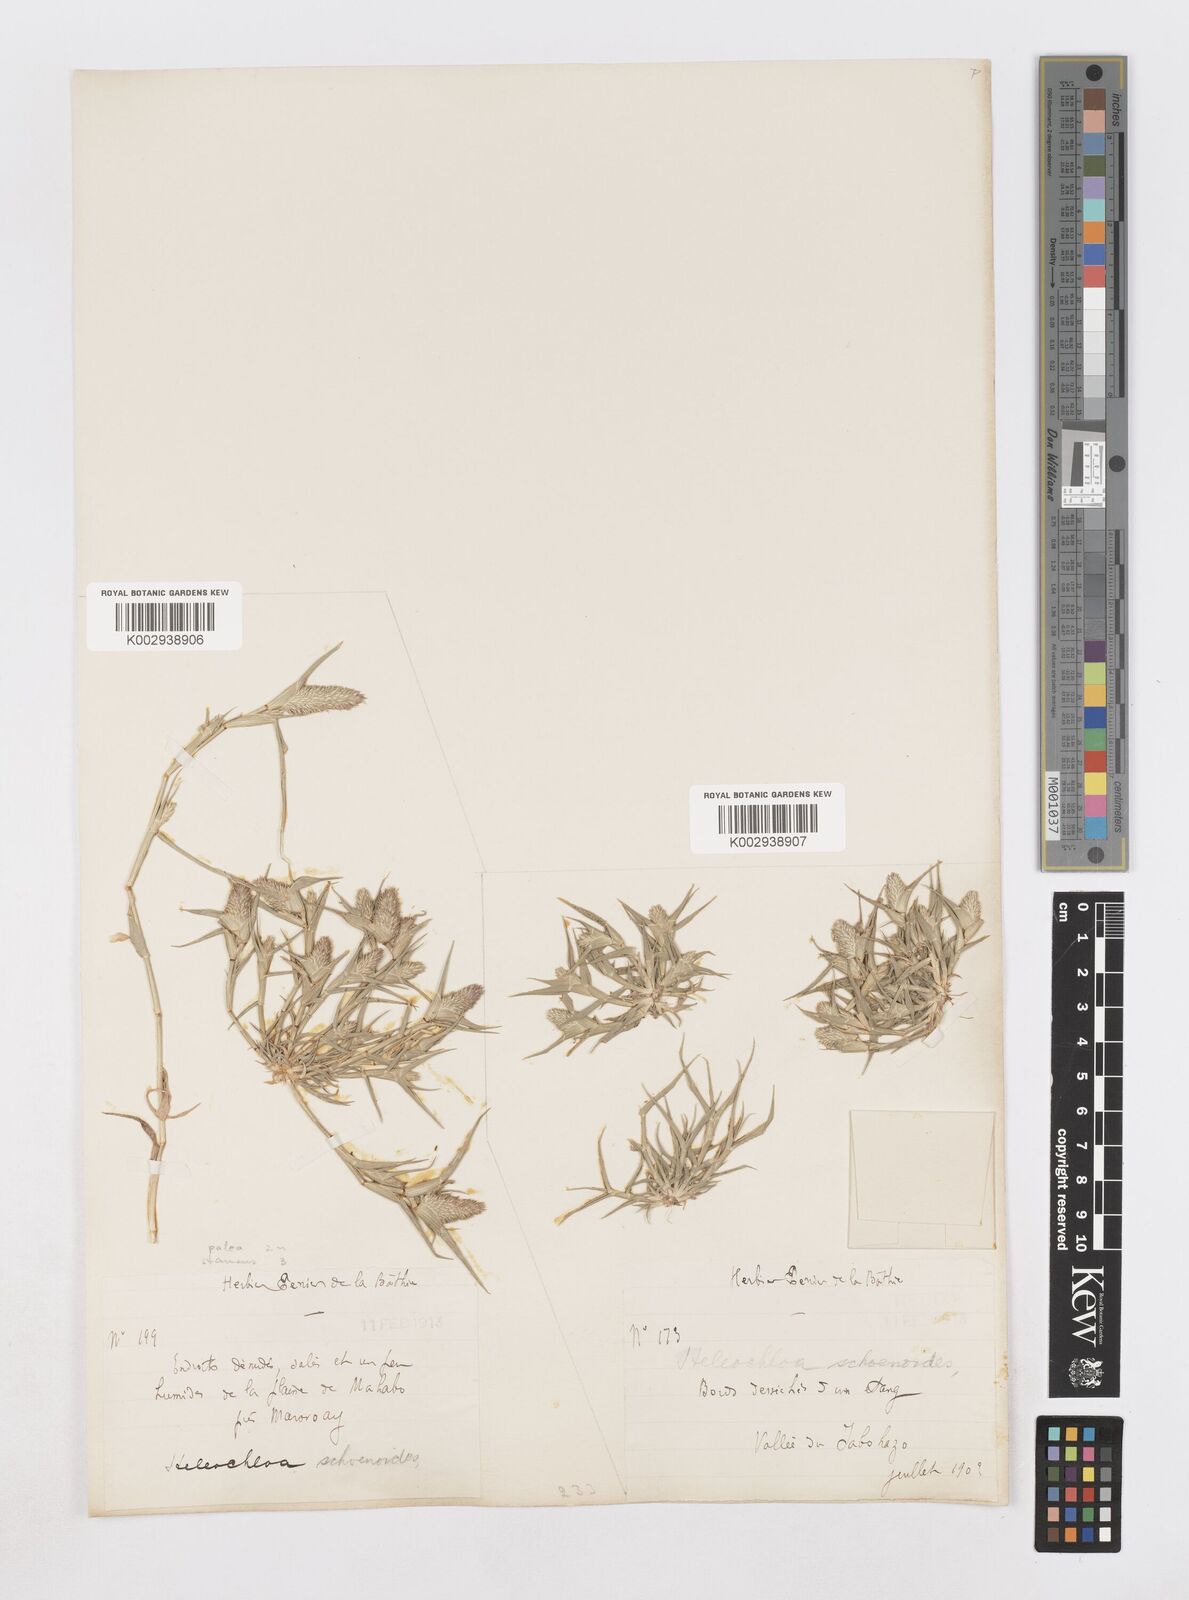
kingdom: Animalia
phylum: Arthropoda
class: Insecta
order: Coleoptera
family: Tenebrionidae
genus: Crypsis
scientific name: Crypsis
